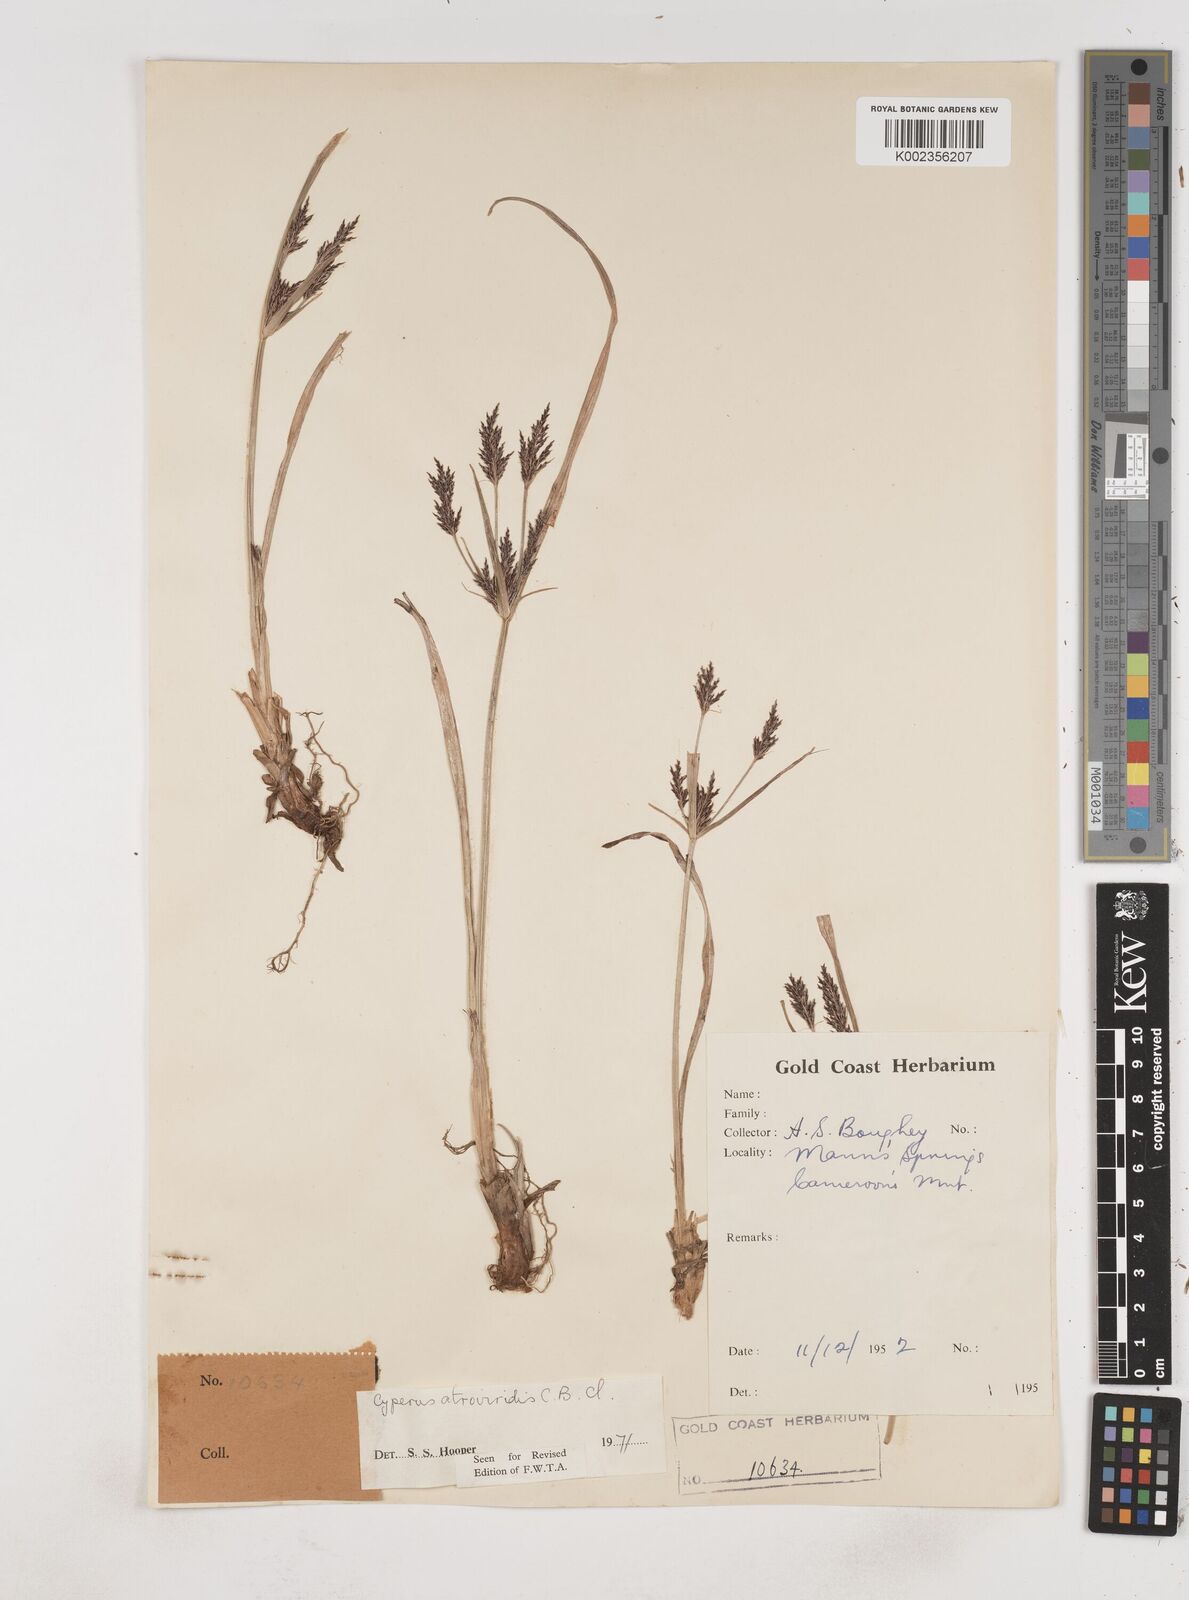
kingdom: Plantae
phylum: Tracheophyta
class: Liliopsida
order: Poales
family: Cyperaceae
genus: Cyperus
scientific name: Cyperus aterrimus
